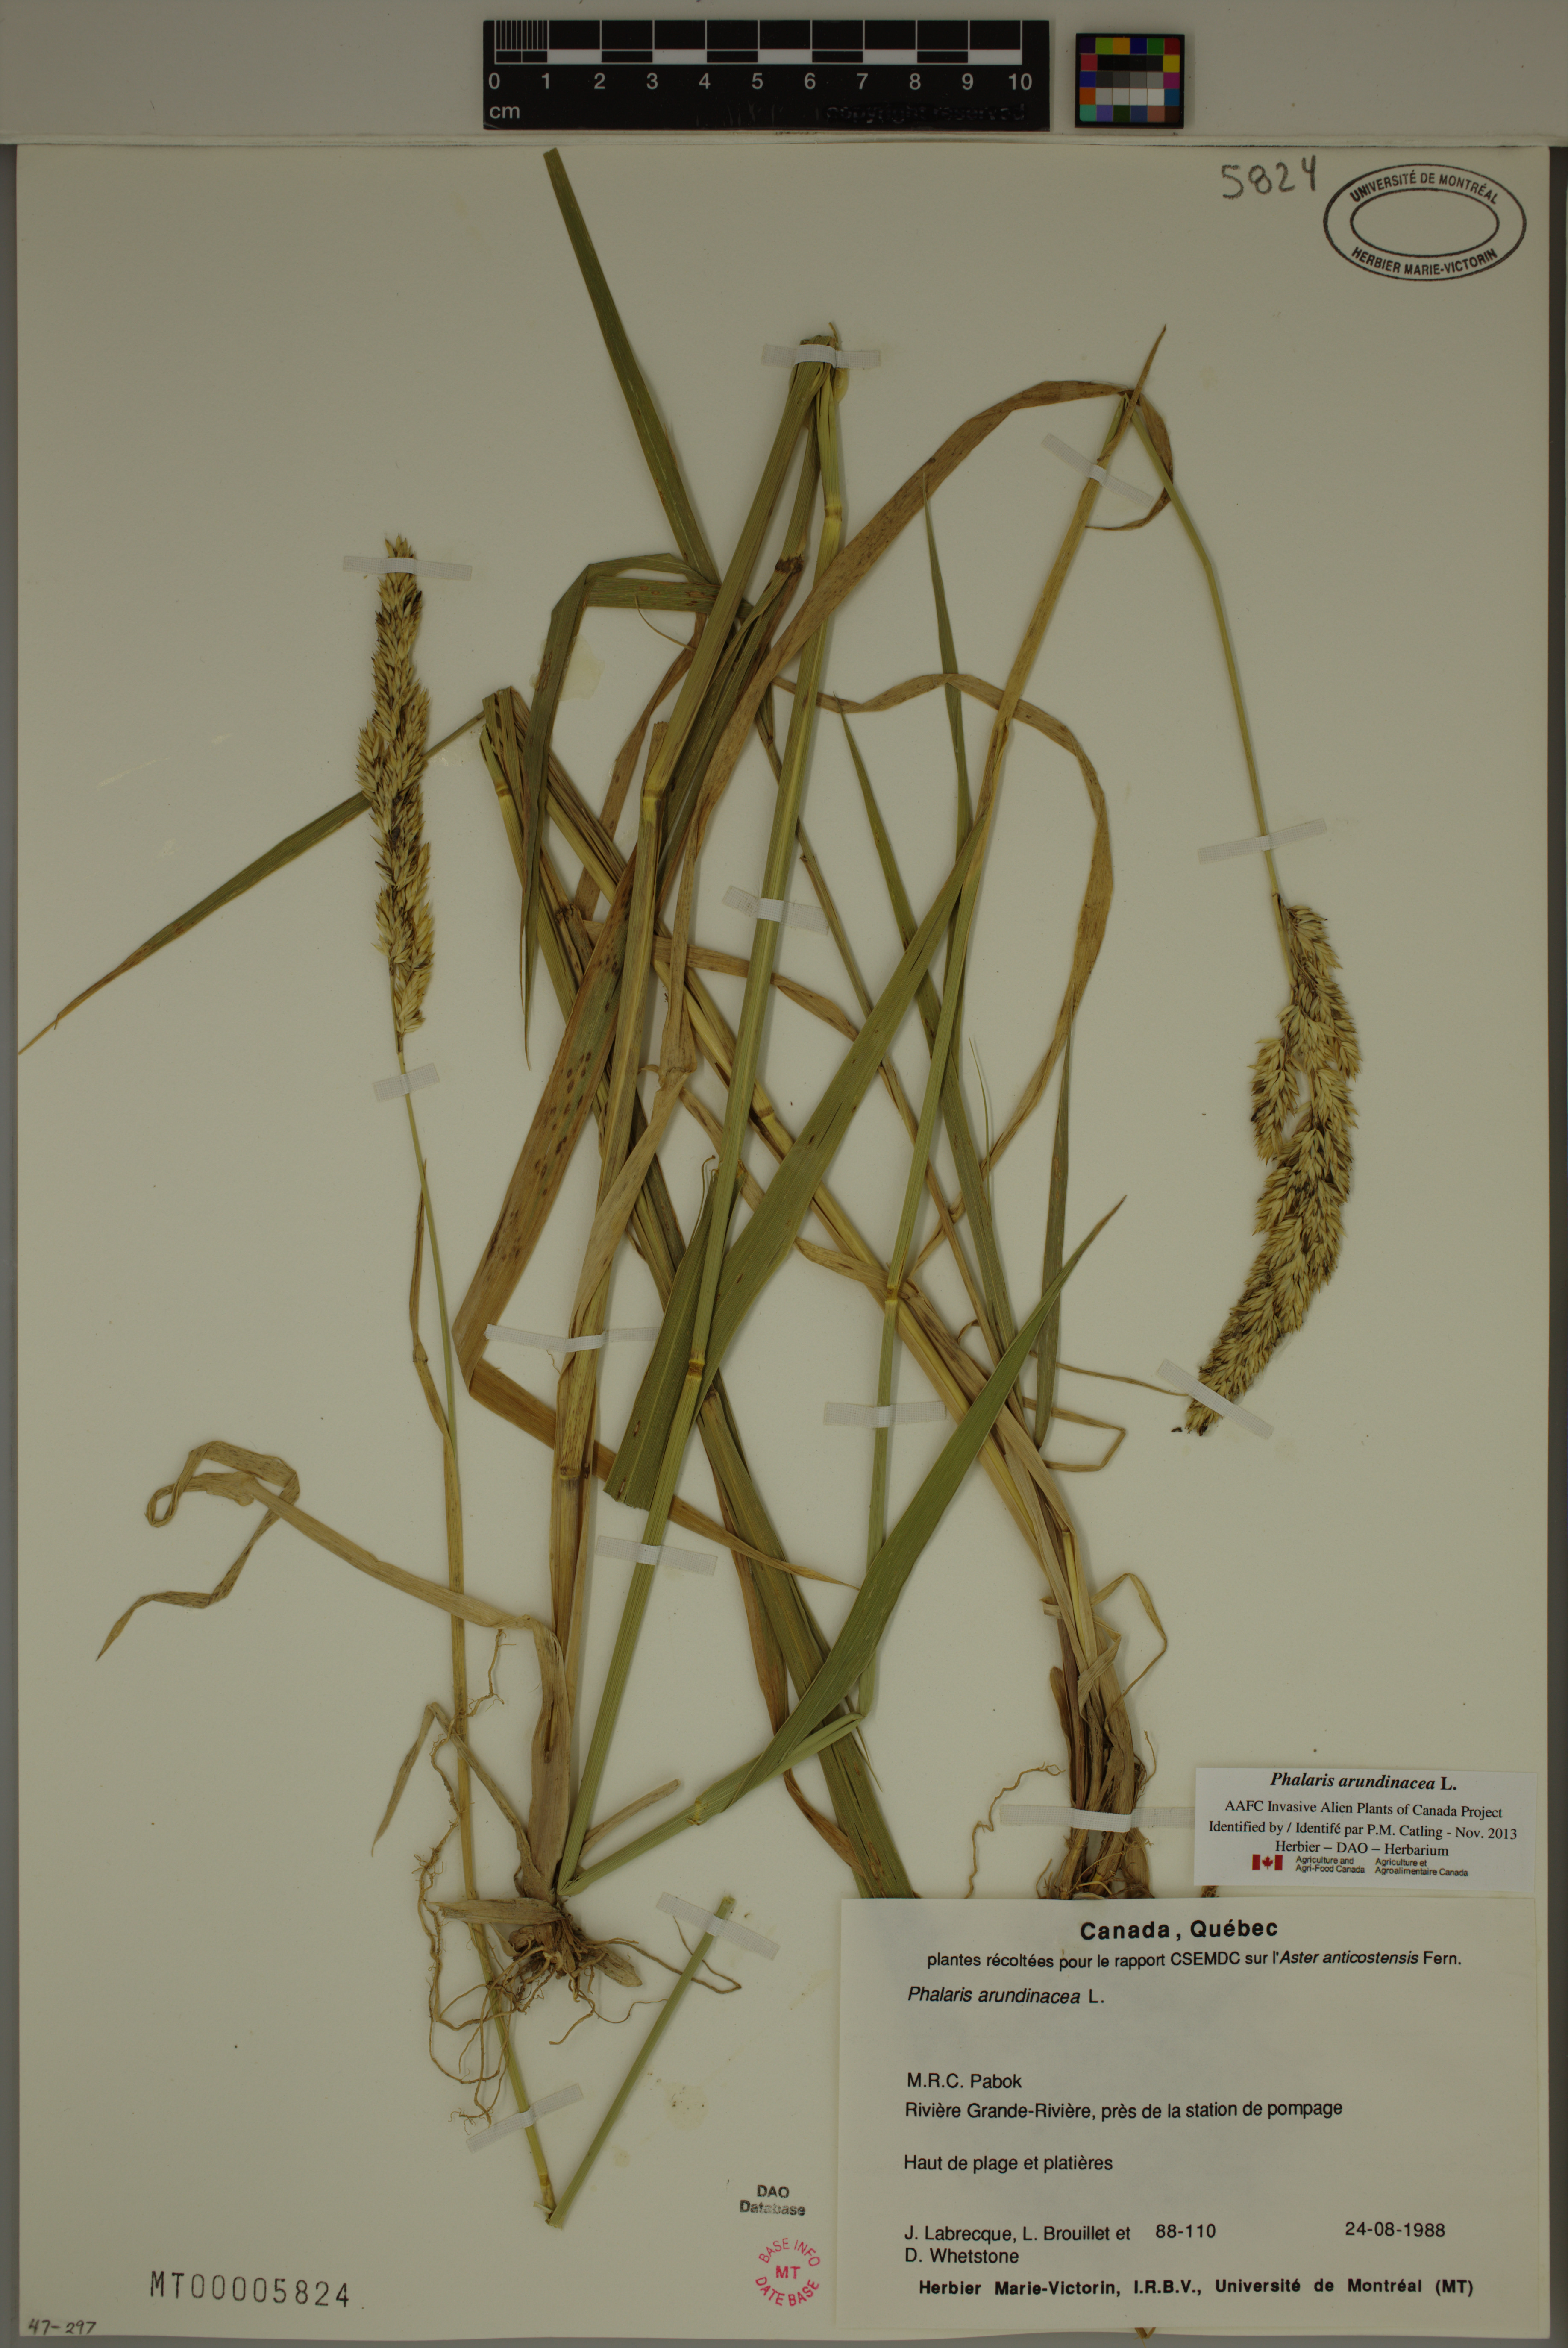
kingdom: Plantae
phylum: Tracheophyta
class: Liliopsida
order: Poales
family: Poaceae
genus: Phalaris
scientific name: Phalaris arundinacea
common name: Reed canary-grass
